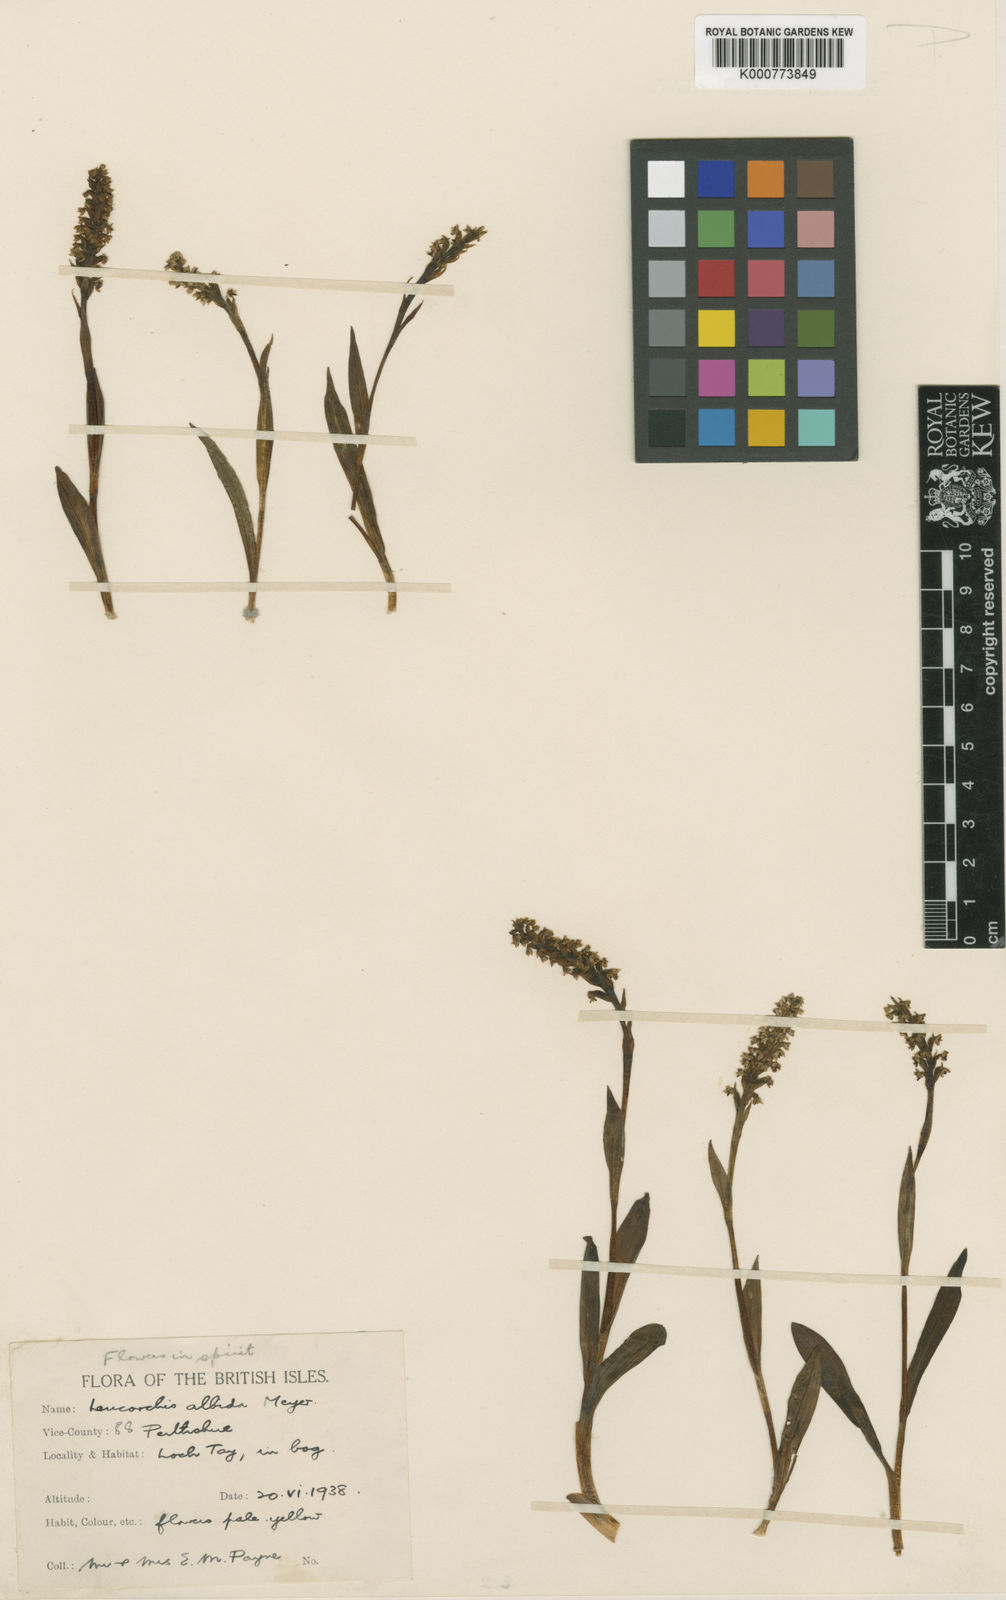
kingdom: Plantae
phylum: Tracheophyta
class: Liliopsida
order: Asparagales
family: Orchidaceae
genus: Pseudorchis
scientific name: Pseudorchis
